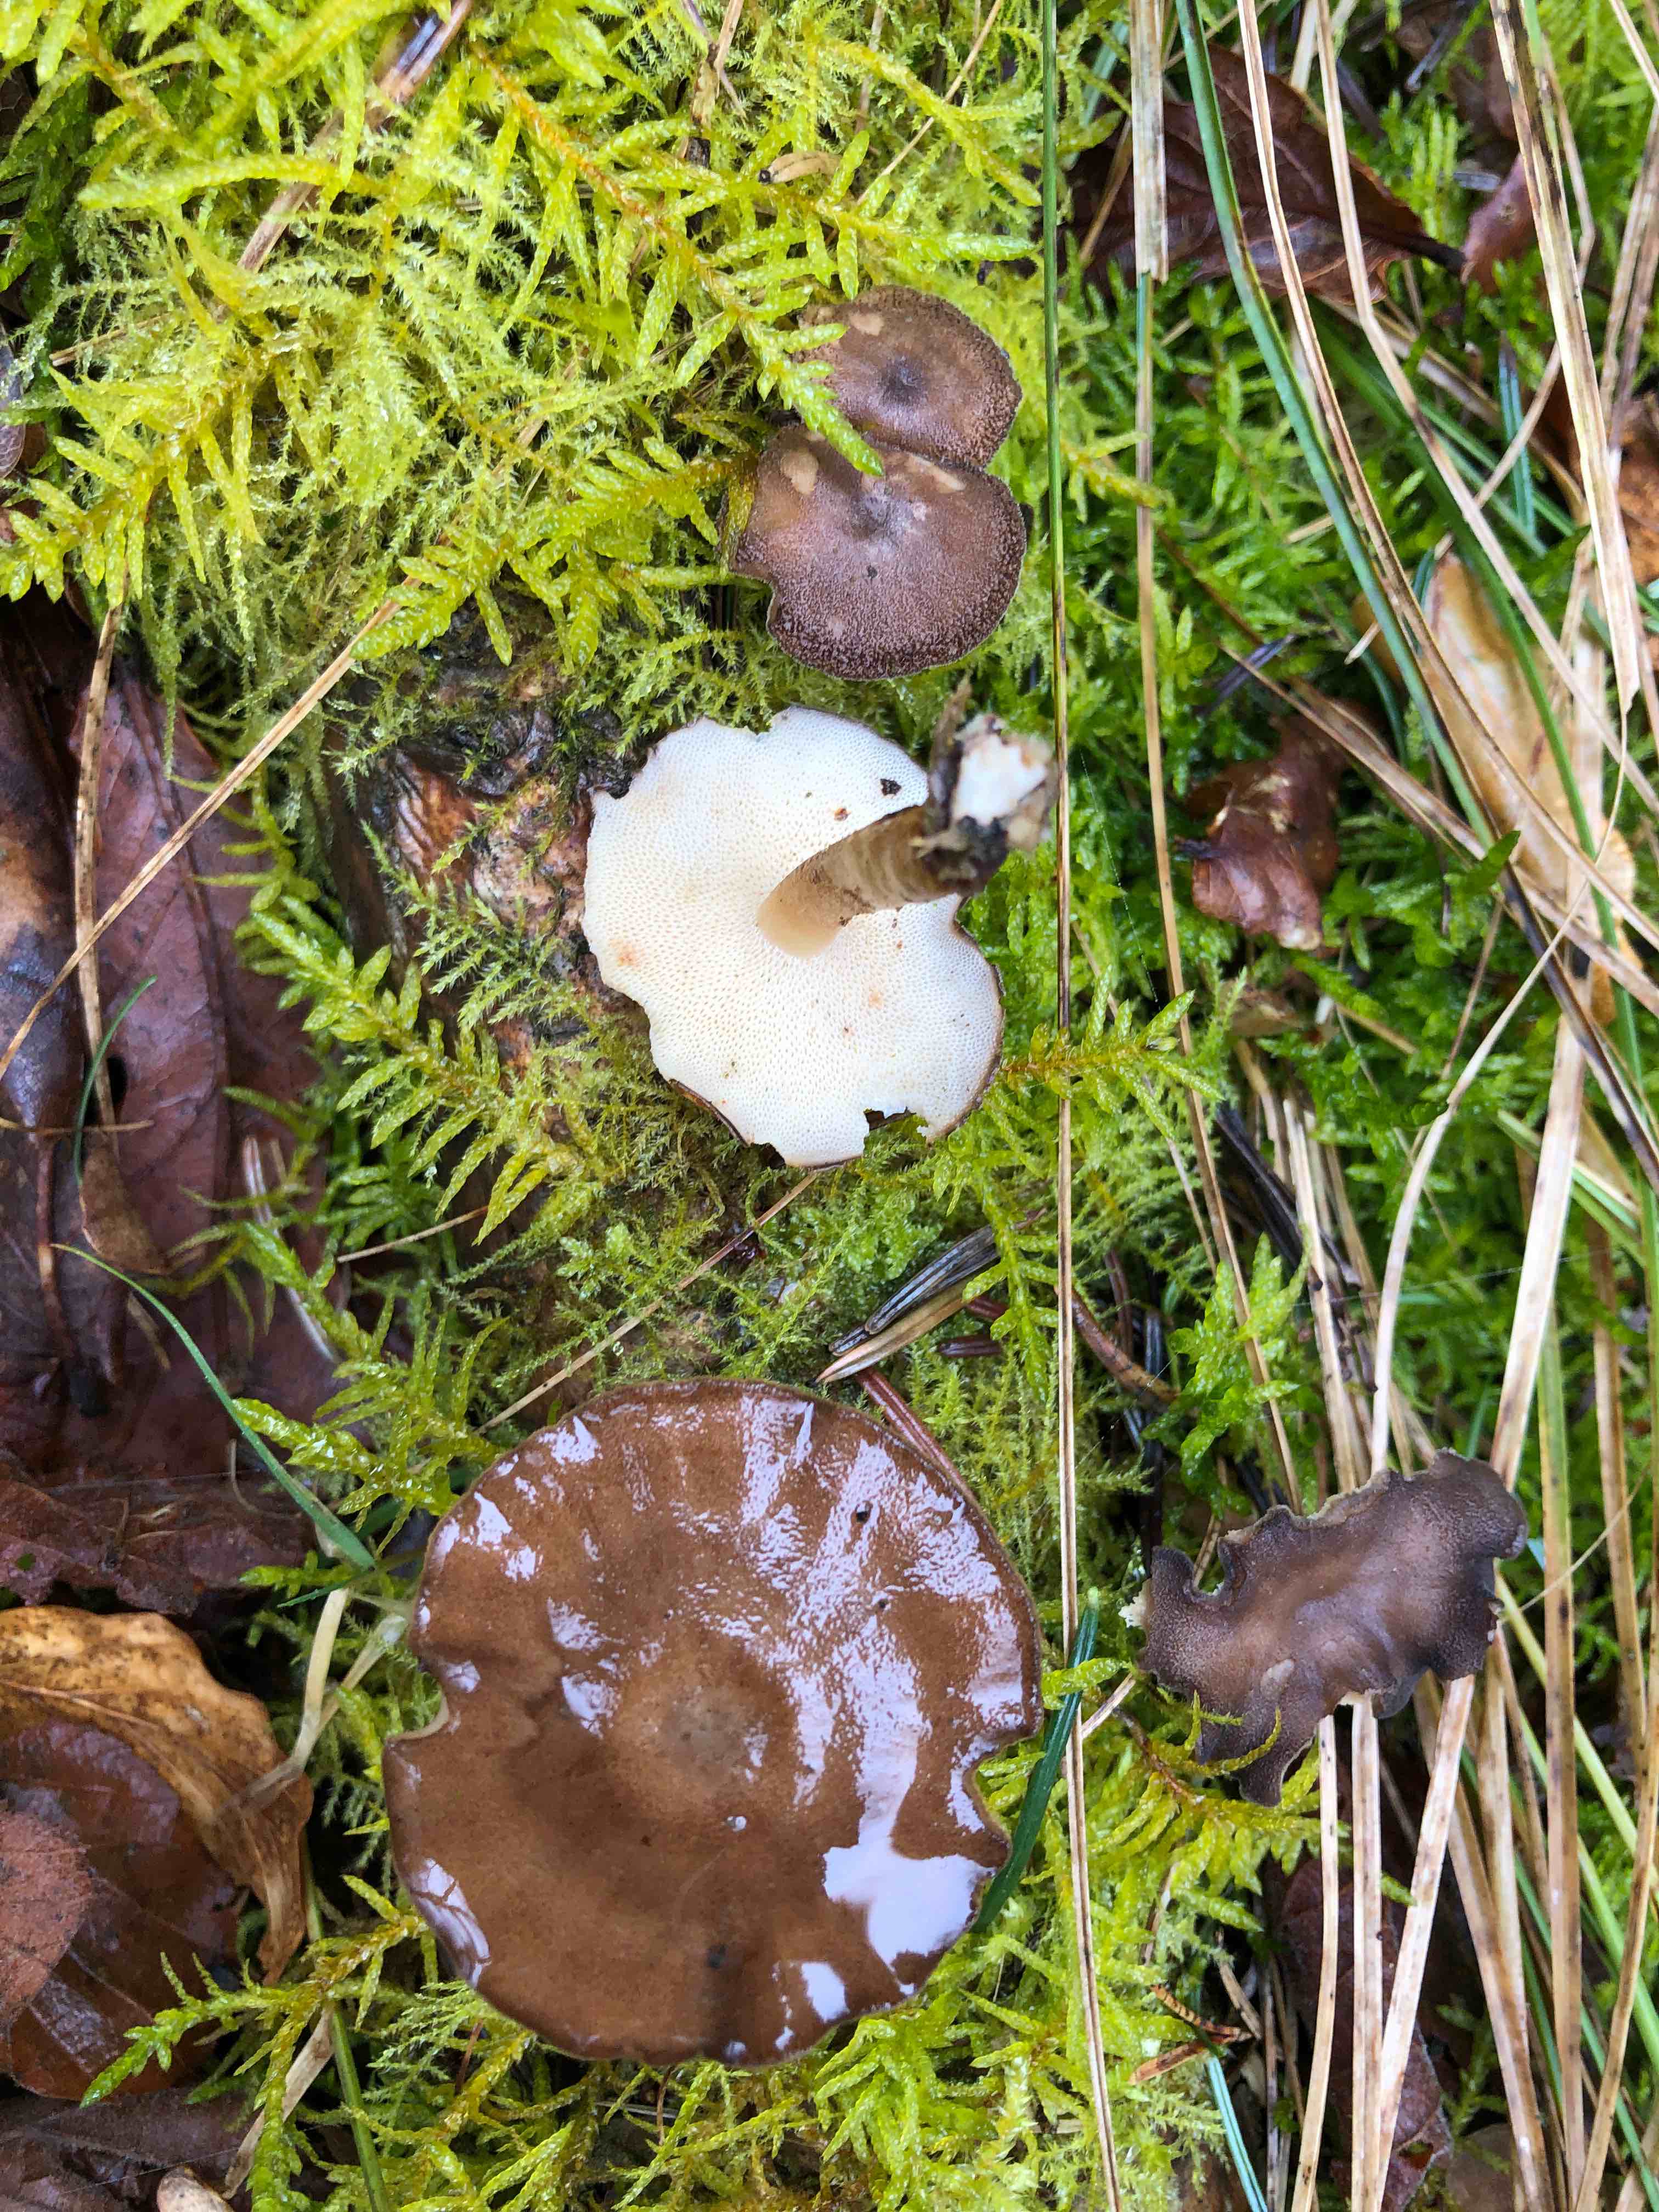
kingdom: Fungi
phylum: Basidiomycota
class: Agaricomycetes
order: Polyporales
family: Polyporaceae
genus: Lentinus
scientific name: Lentinus brumalis
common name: vinter-stilkporesvamp
